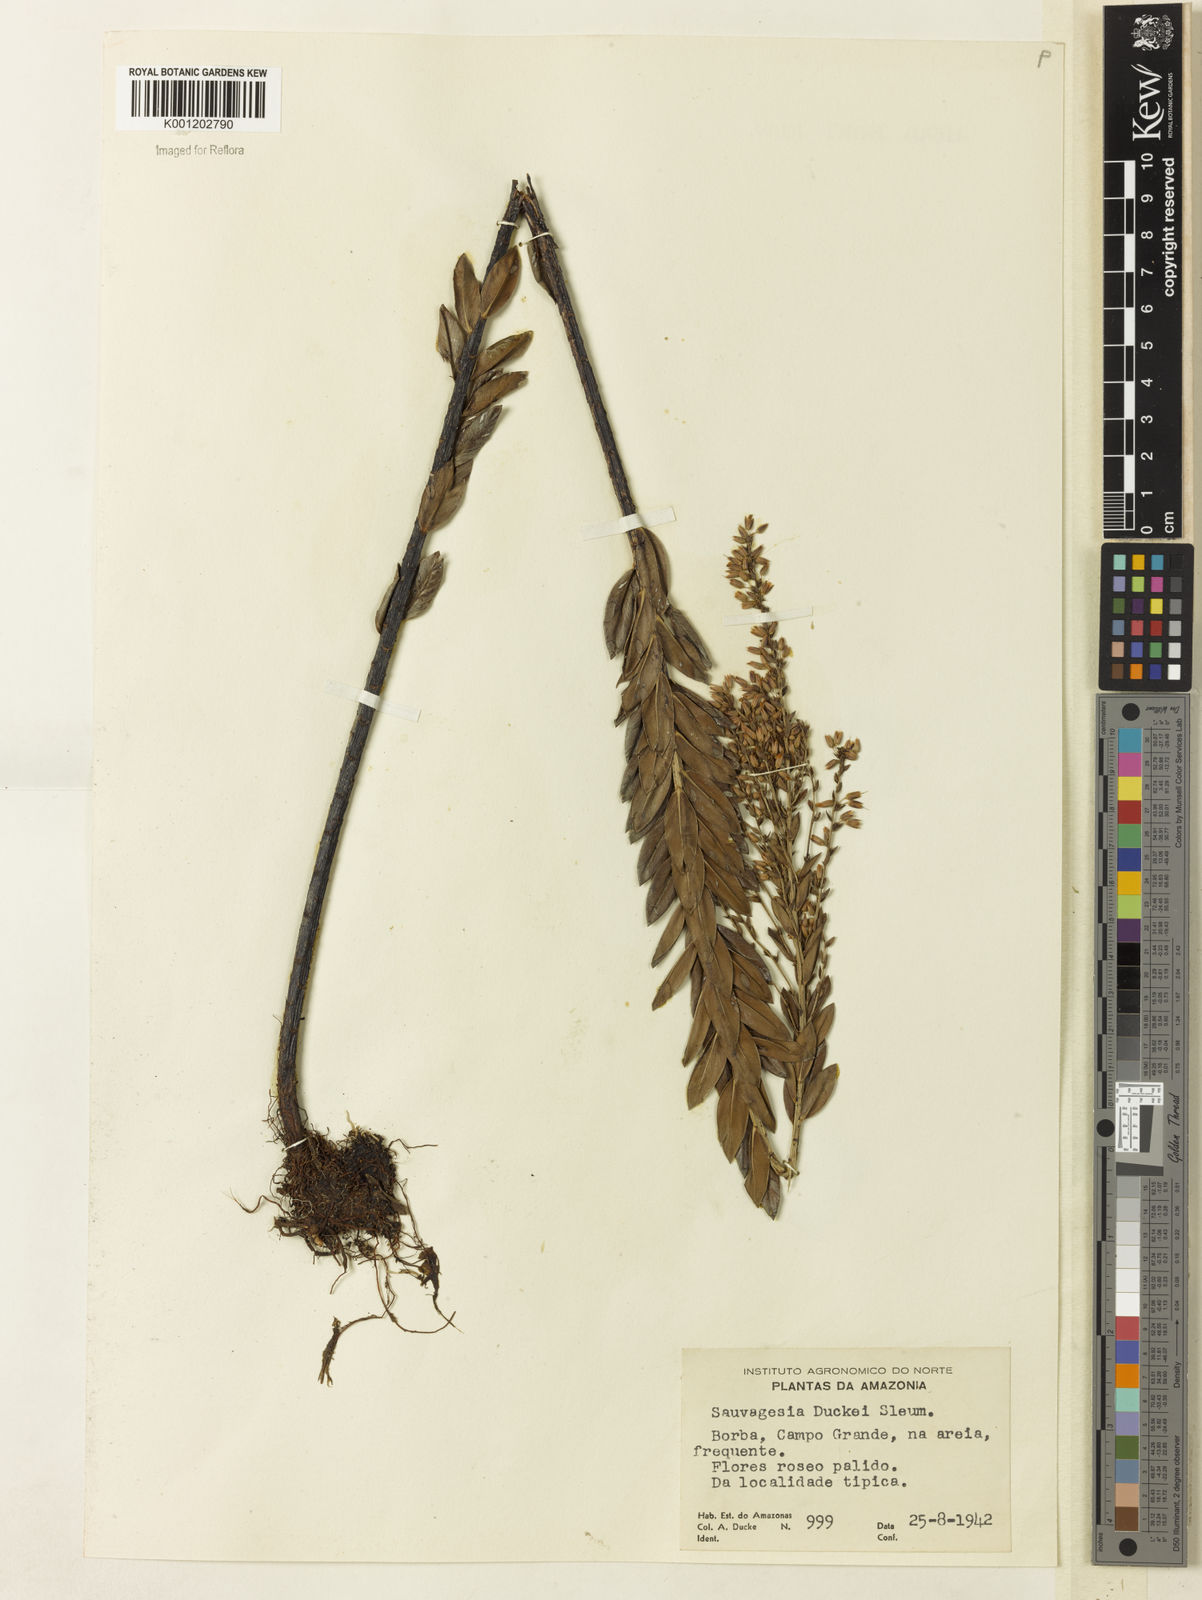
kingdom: Plantae
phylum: Tracheophyta
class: Magnoliopsida
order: Malpighiales
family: Ochnaceae
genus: Sauvagesia
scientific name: Sauvagesia ramosa
